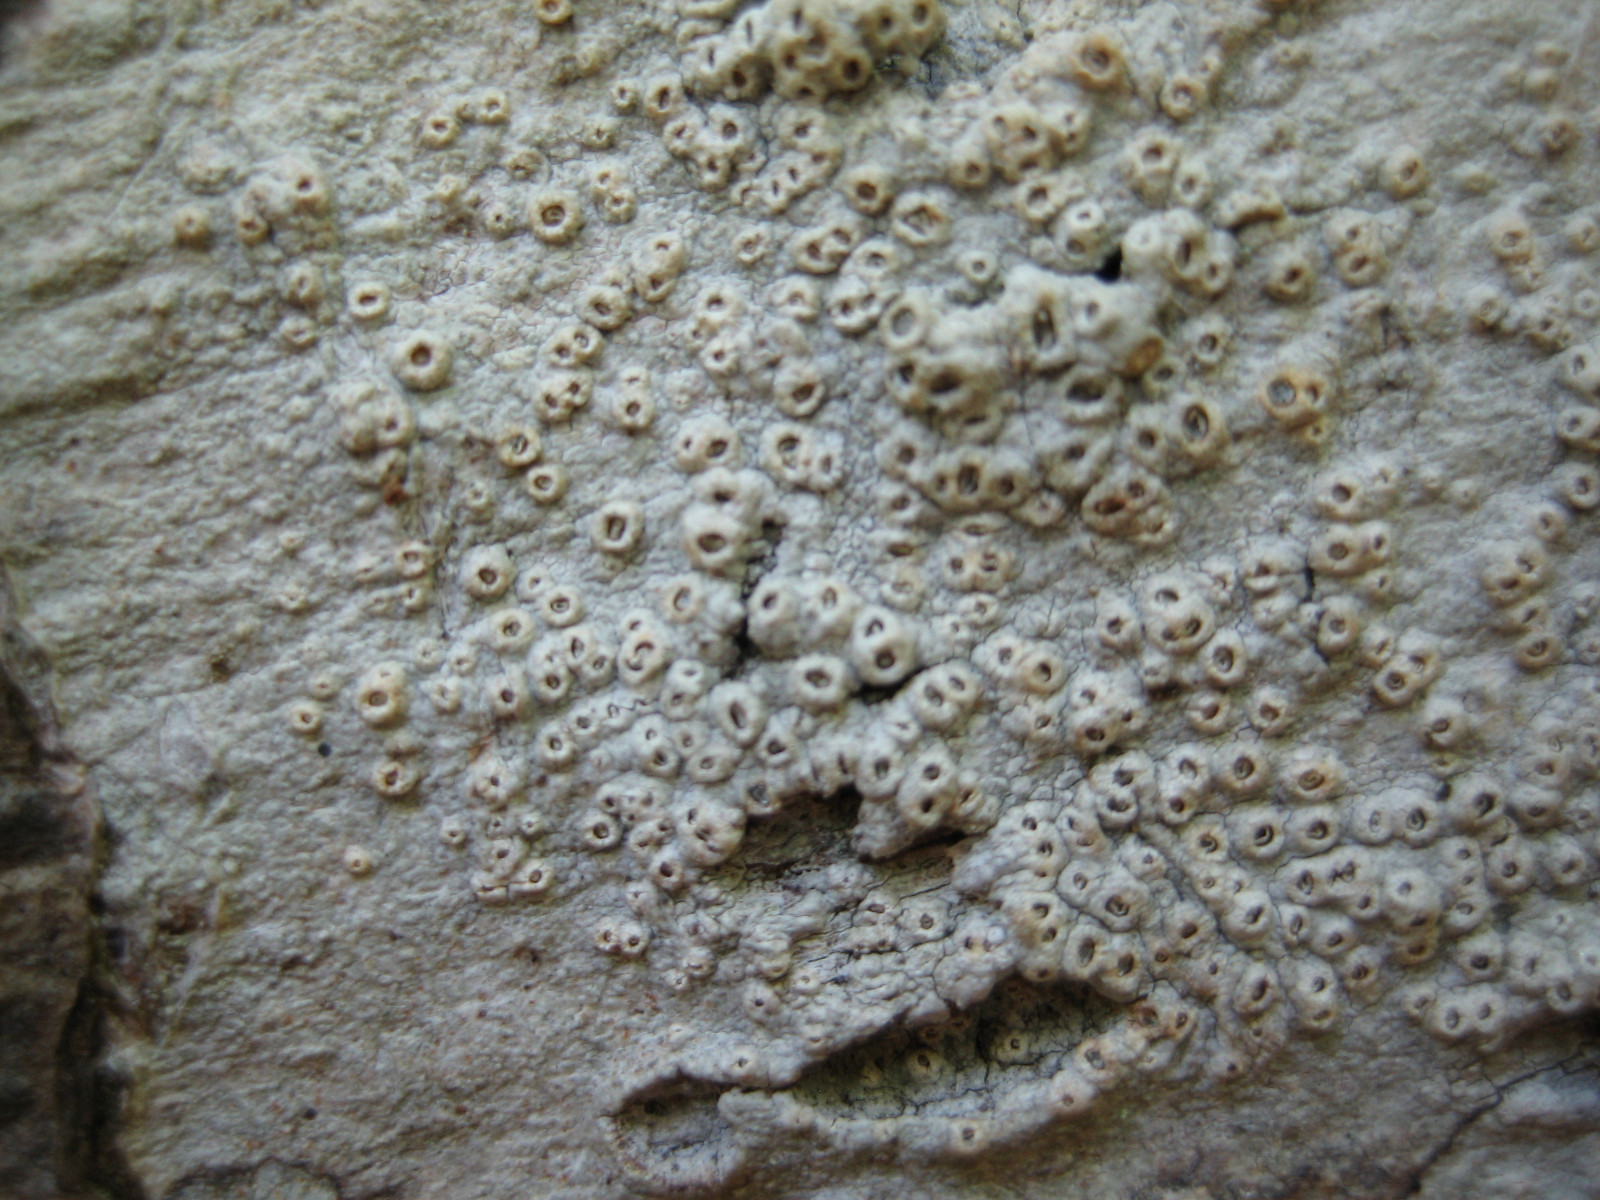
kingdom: Fungi
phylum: Ascomycota
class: Lecanoromycetes
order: Ostropales
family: Graphidaceae
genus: Thelotrema
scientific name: Thelotrema lepadinum
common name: almindelig slørkantlav
